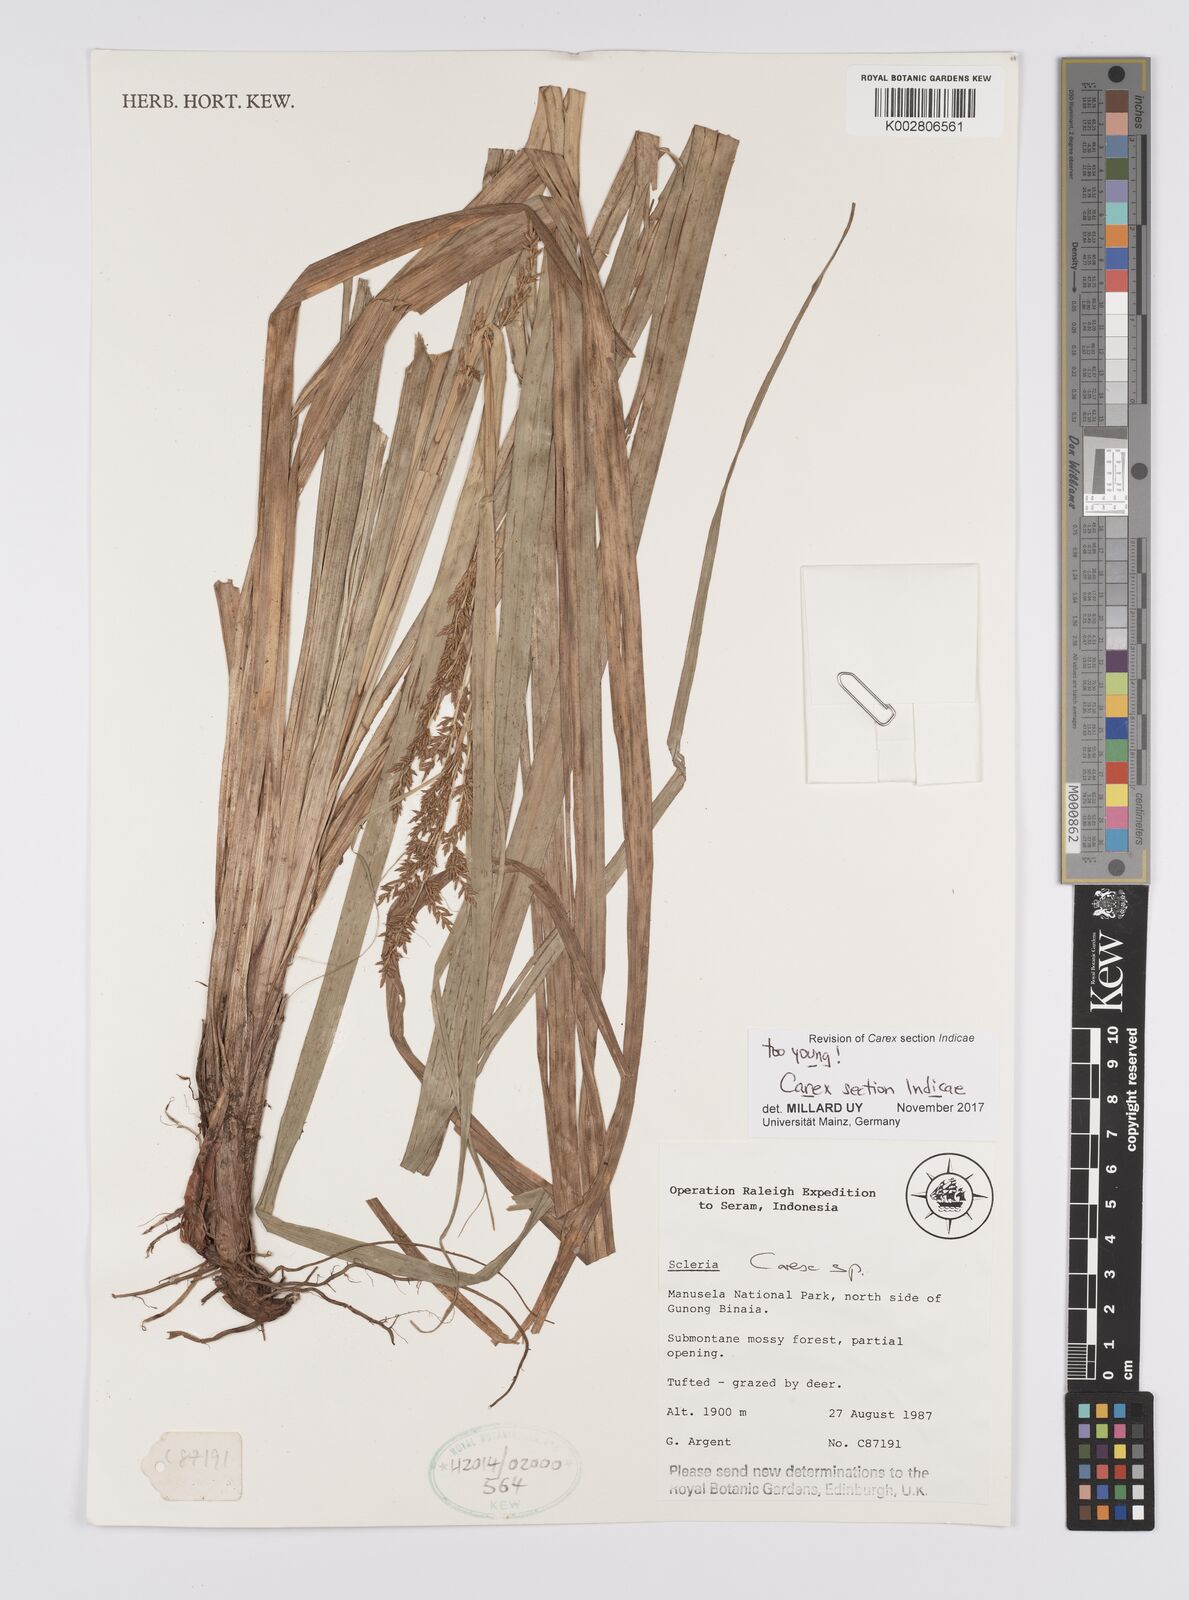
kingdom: Plantae
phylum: Tracheophyta
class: Liliopsida
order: Poales
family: Cyperaceae
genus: Carex
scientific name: Carex
